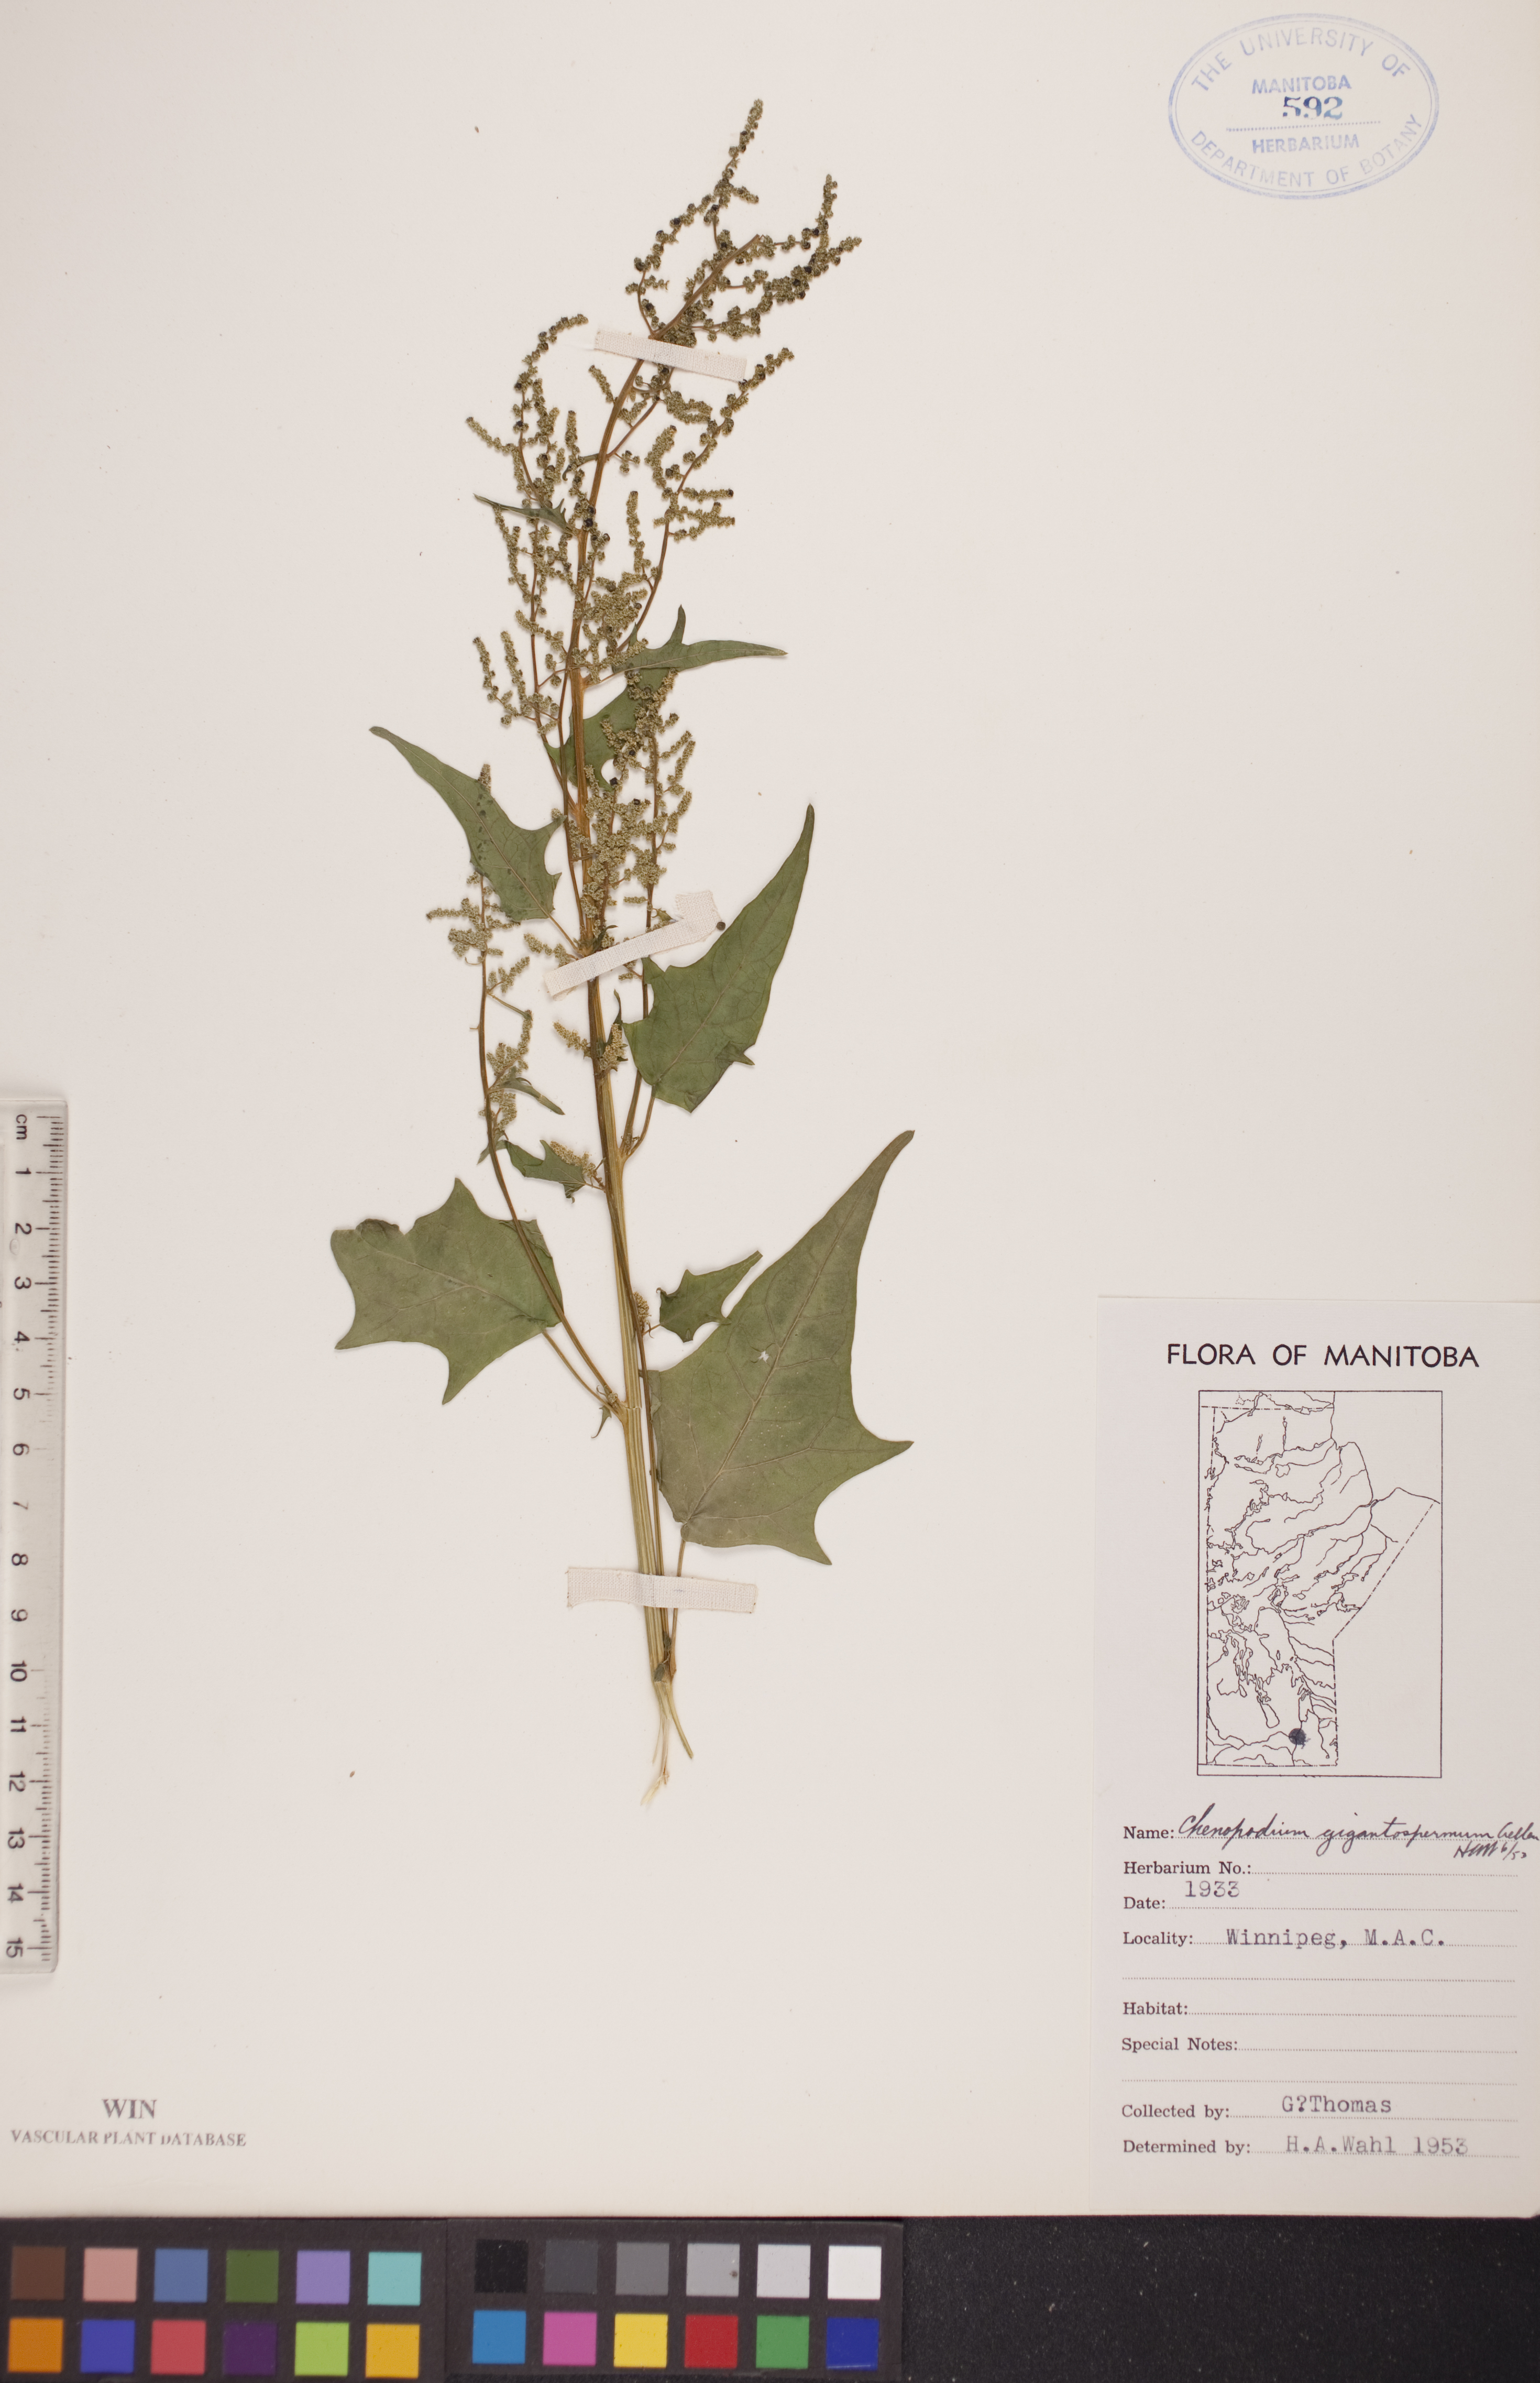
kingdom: Plantae
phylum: Tracheophyta
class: Magnoliopsida
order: Caryophyllales
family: Amaranthaceae
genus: Chenopodiastrum
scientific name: Chenopodiastrum simplex
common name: Large-seed goosefoot
